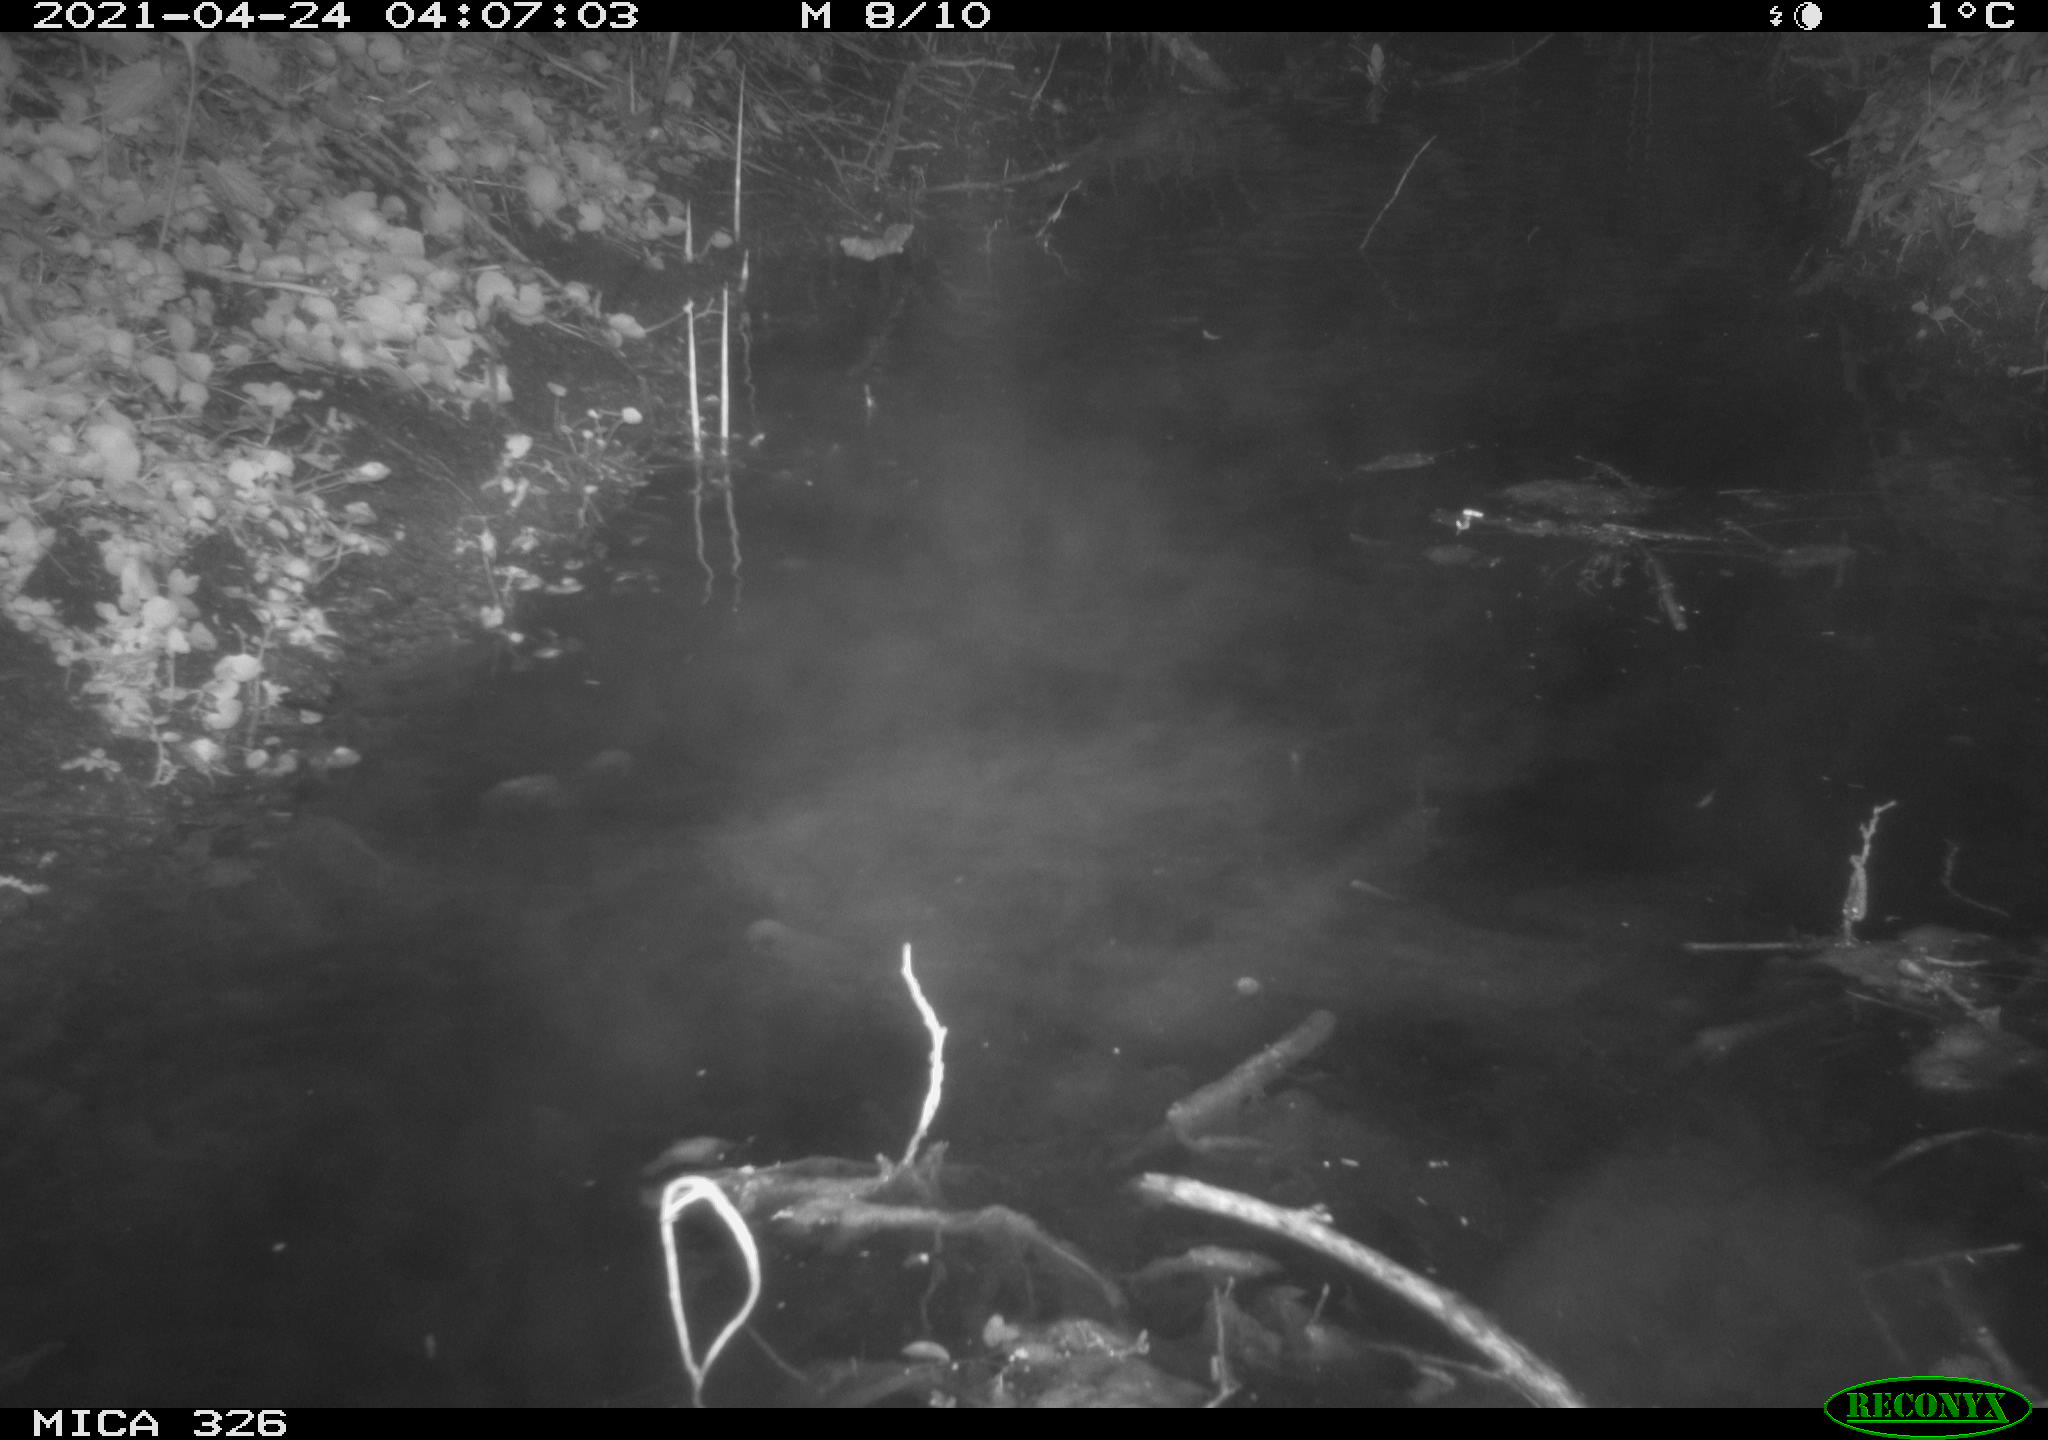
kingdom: Animalia
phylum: Chordata
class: Mammalia
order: Rodentia
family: Myocastoridae
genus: Myocastor
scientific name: Myocastor coypus
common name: Coypu
